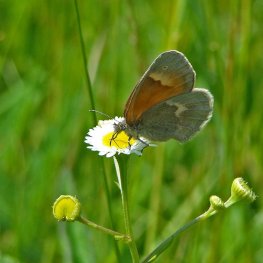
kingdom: Animalia
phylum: Arthropoda
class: Insecta
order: Lepidoptera
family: Nymphalidae
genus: Coenonympha
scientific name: Coenonympha tullia
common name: Large Heath
